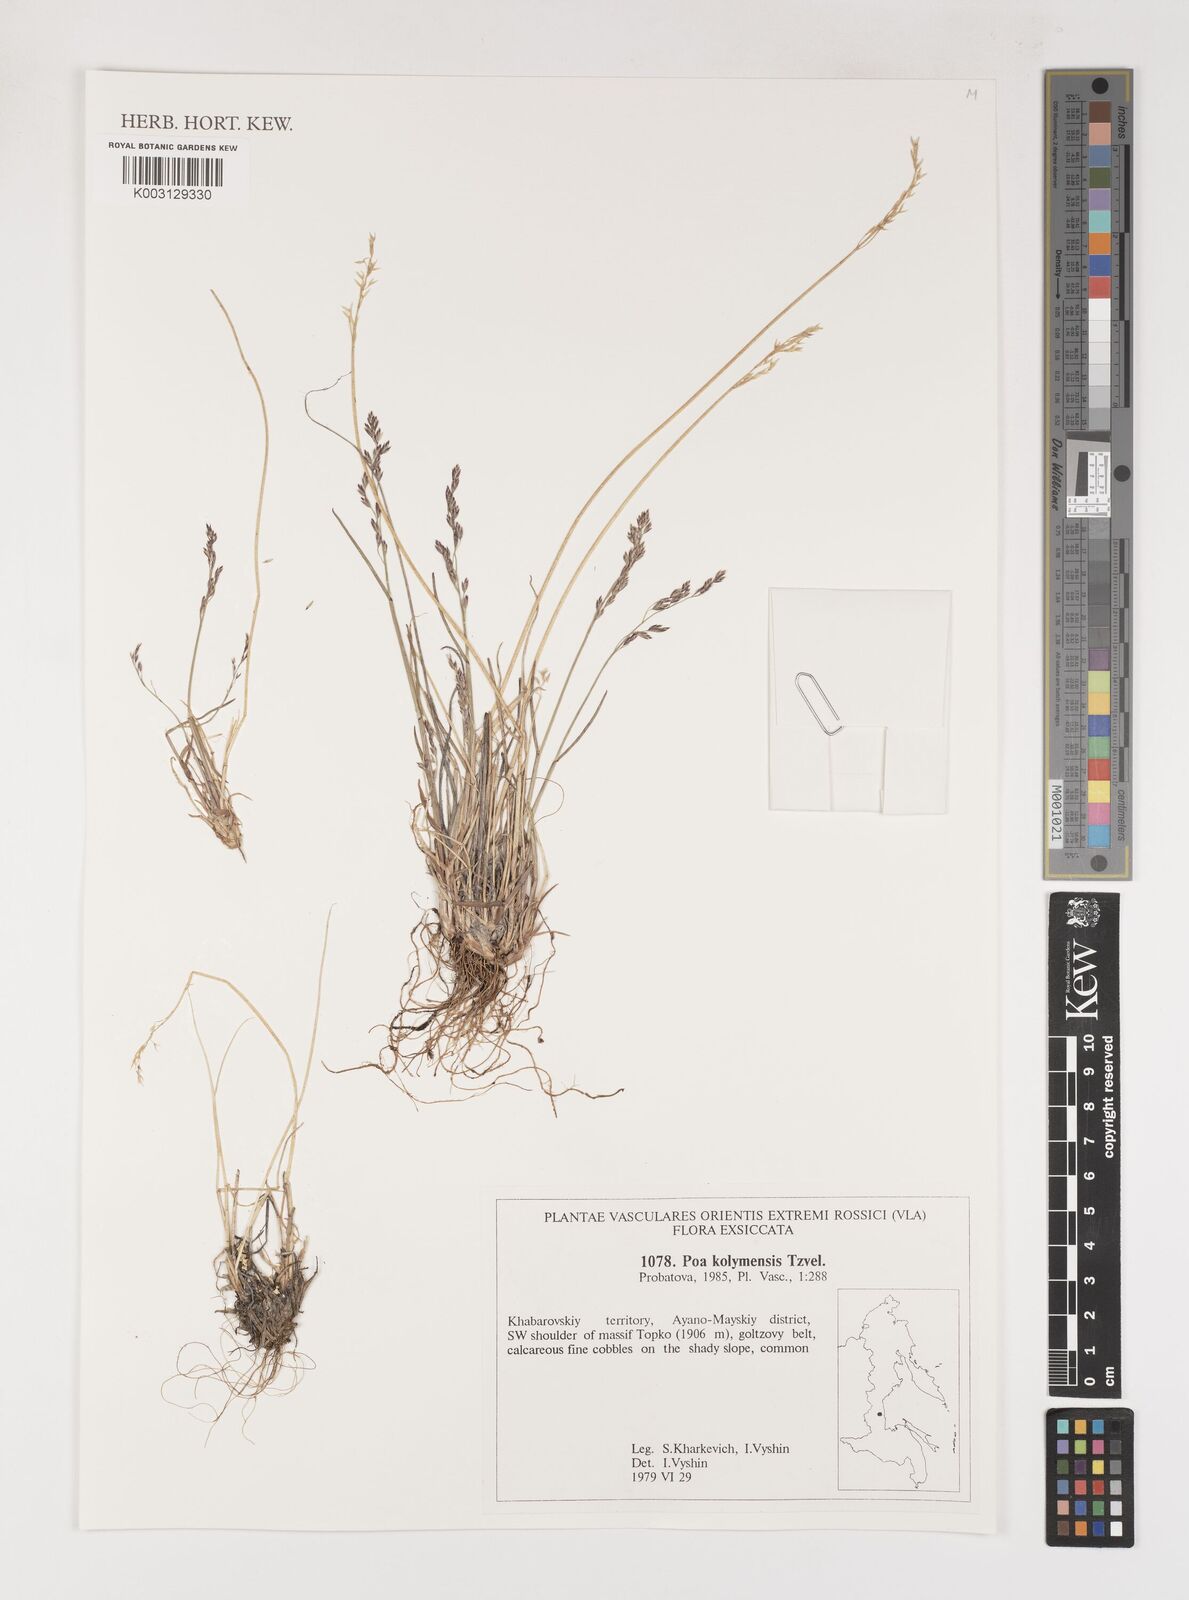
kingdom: Plantae
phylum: Tracheophyta
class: Liliopsida
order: Poales
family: Poaceae
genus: Poa
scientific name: Poa kolymensis
